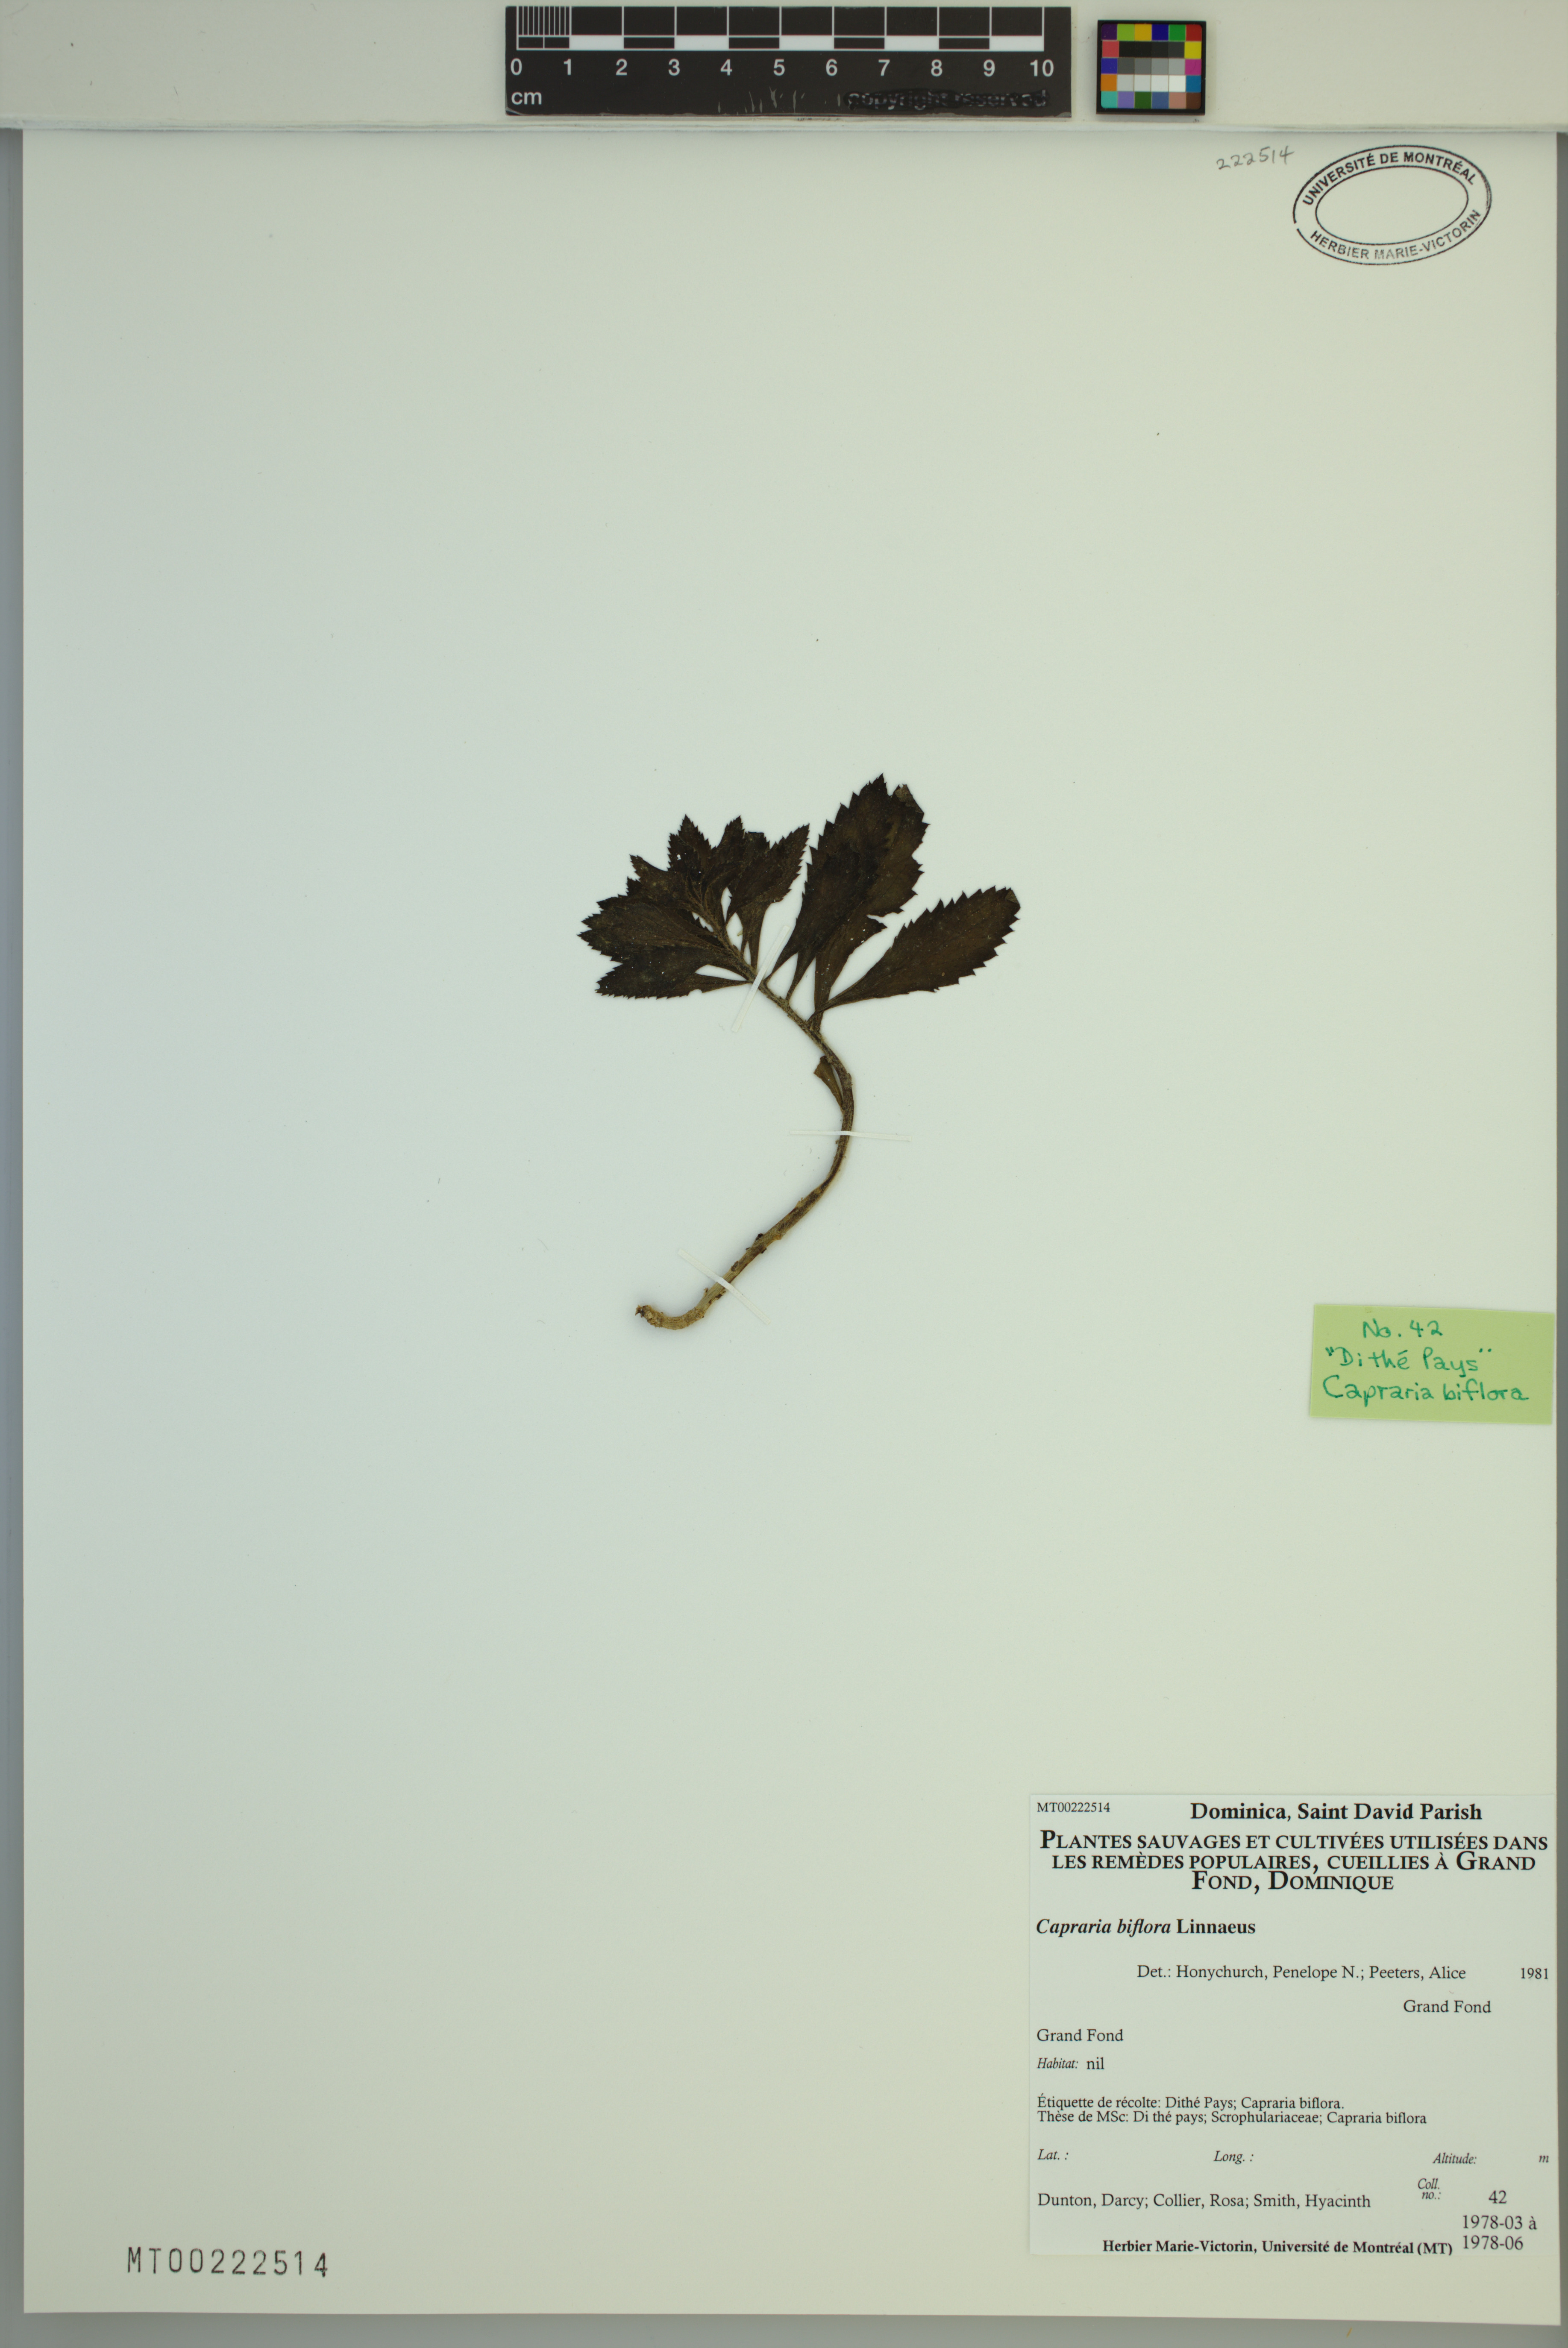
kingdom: Plantae
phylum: Tracheophyta
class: Magnoliopsida
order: Lamiales
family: Scrophulariaceae
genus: Capraria
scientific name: Capraria biflora
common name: Goatweed
